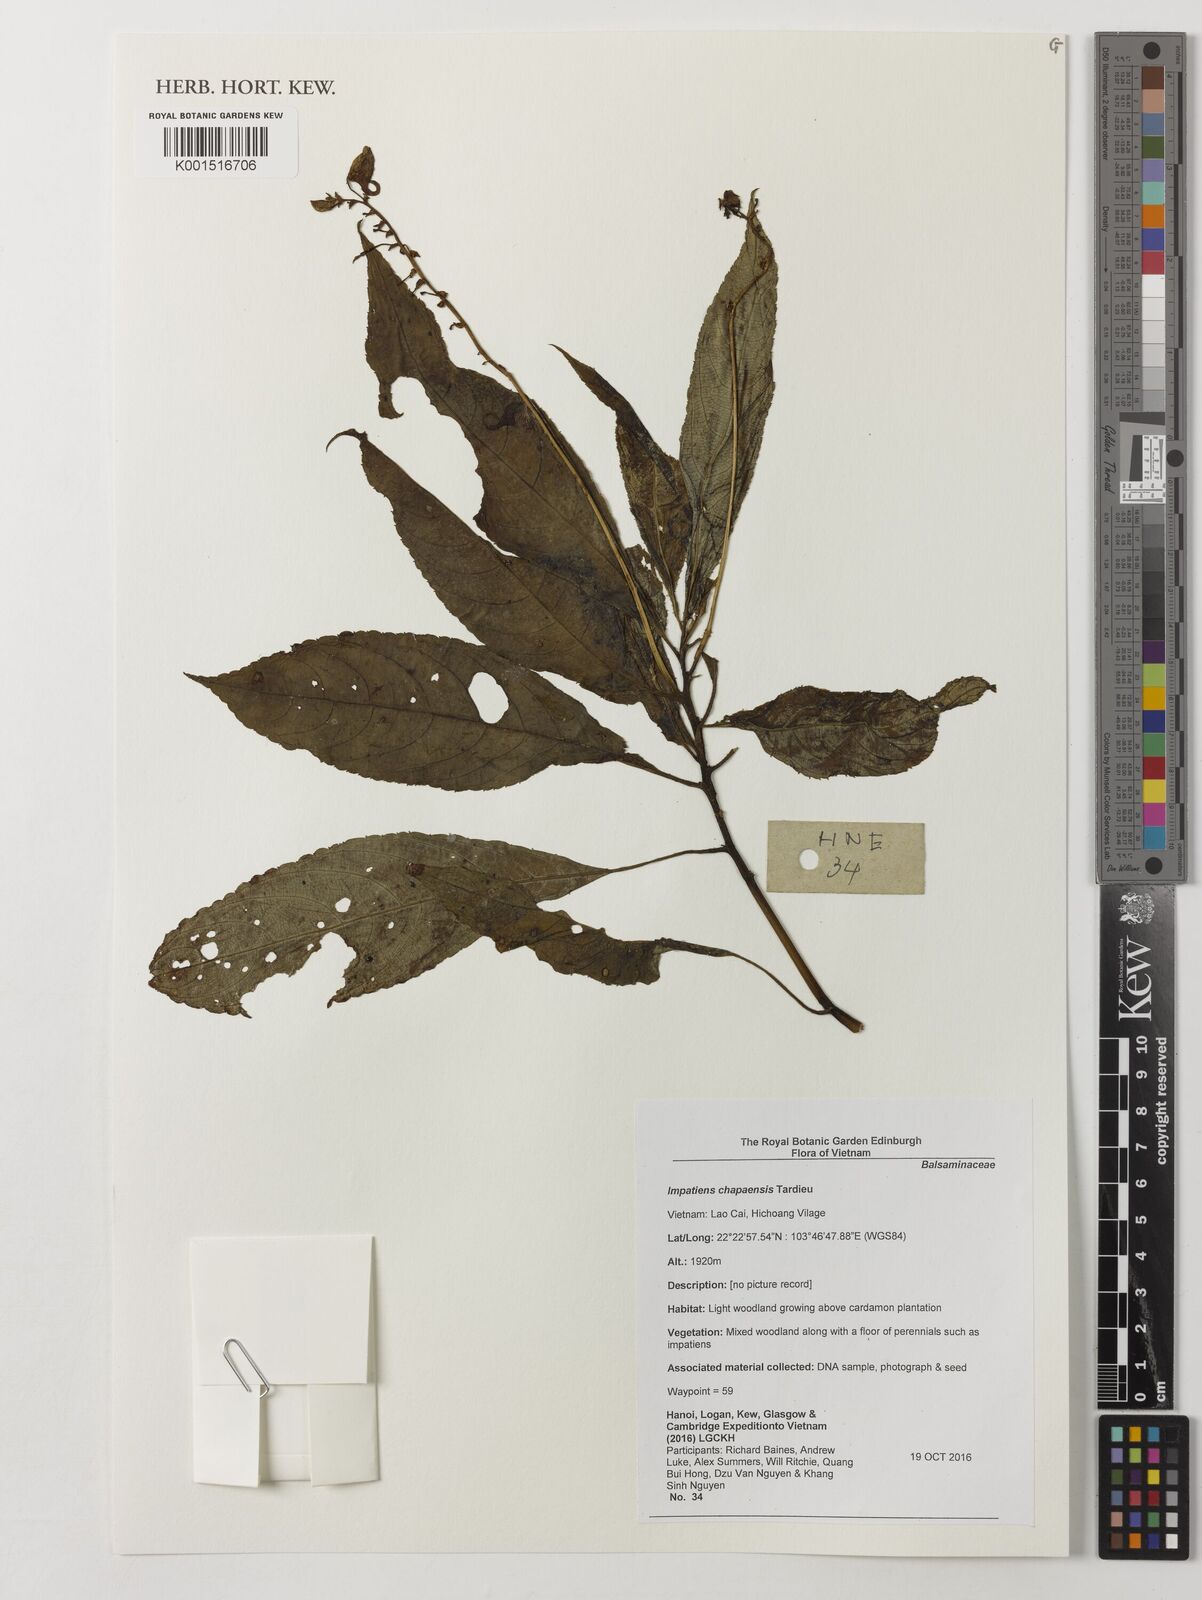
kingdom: Plantae
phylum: Tracheophyta
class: Magnoliopsida
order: Ericales
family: Balsaminaceae
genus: Impatiens
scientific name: Impatiens chapaensis
